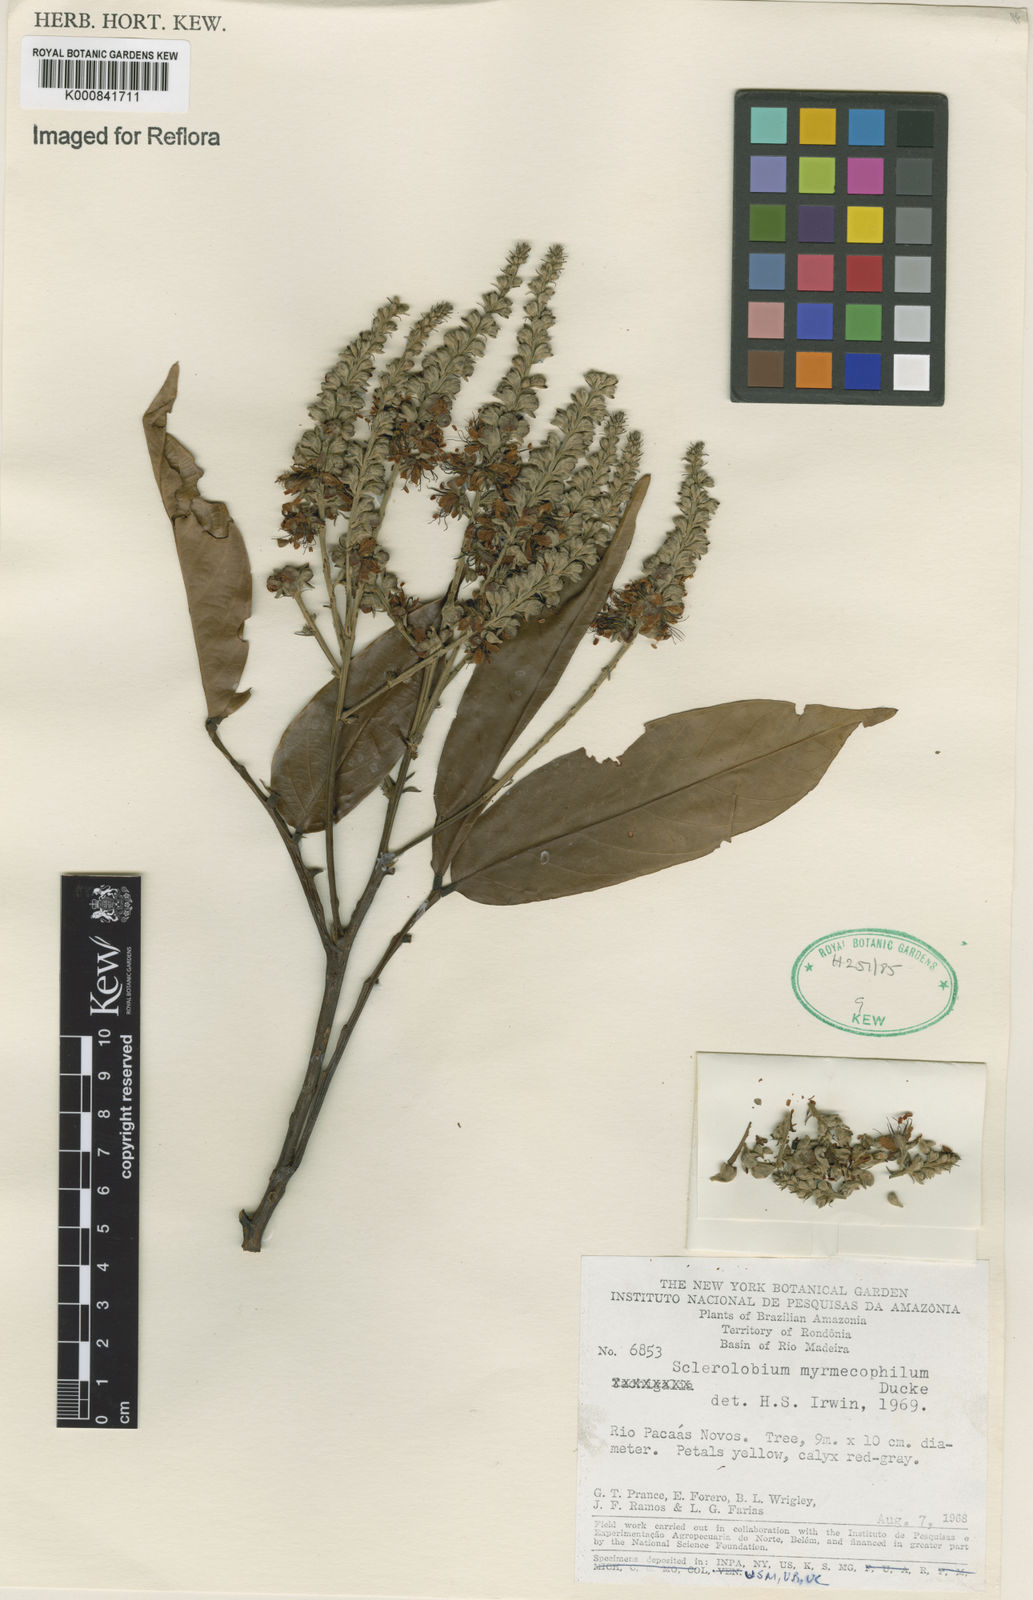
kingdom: Plantae
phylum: Tracheophyta
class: Magnoliopsida
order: Fabales
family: Fabaceae
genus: Tachigali
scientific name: Tachigali glauca
